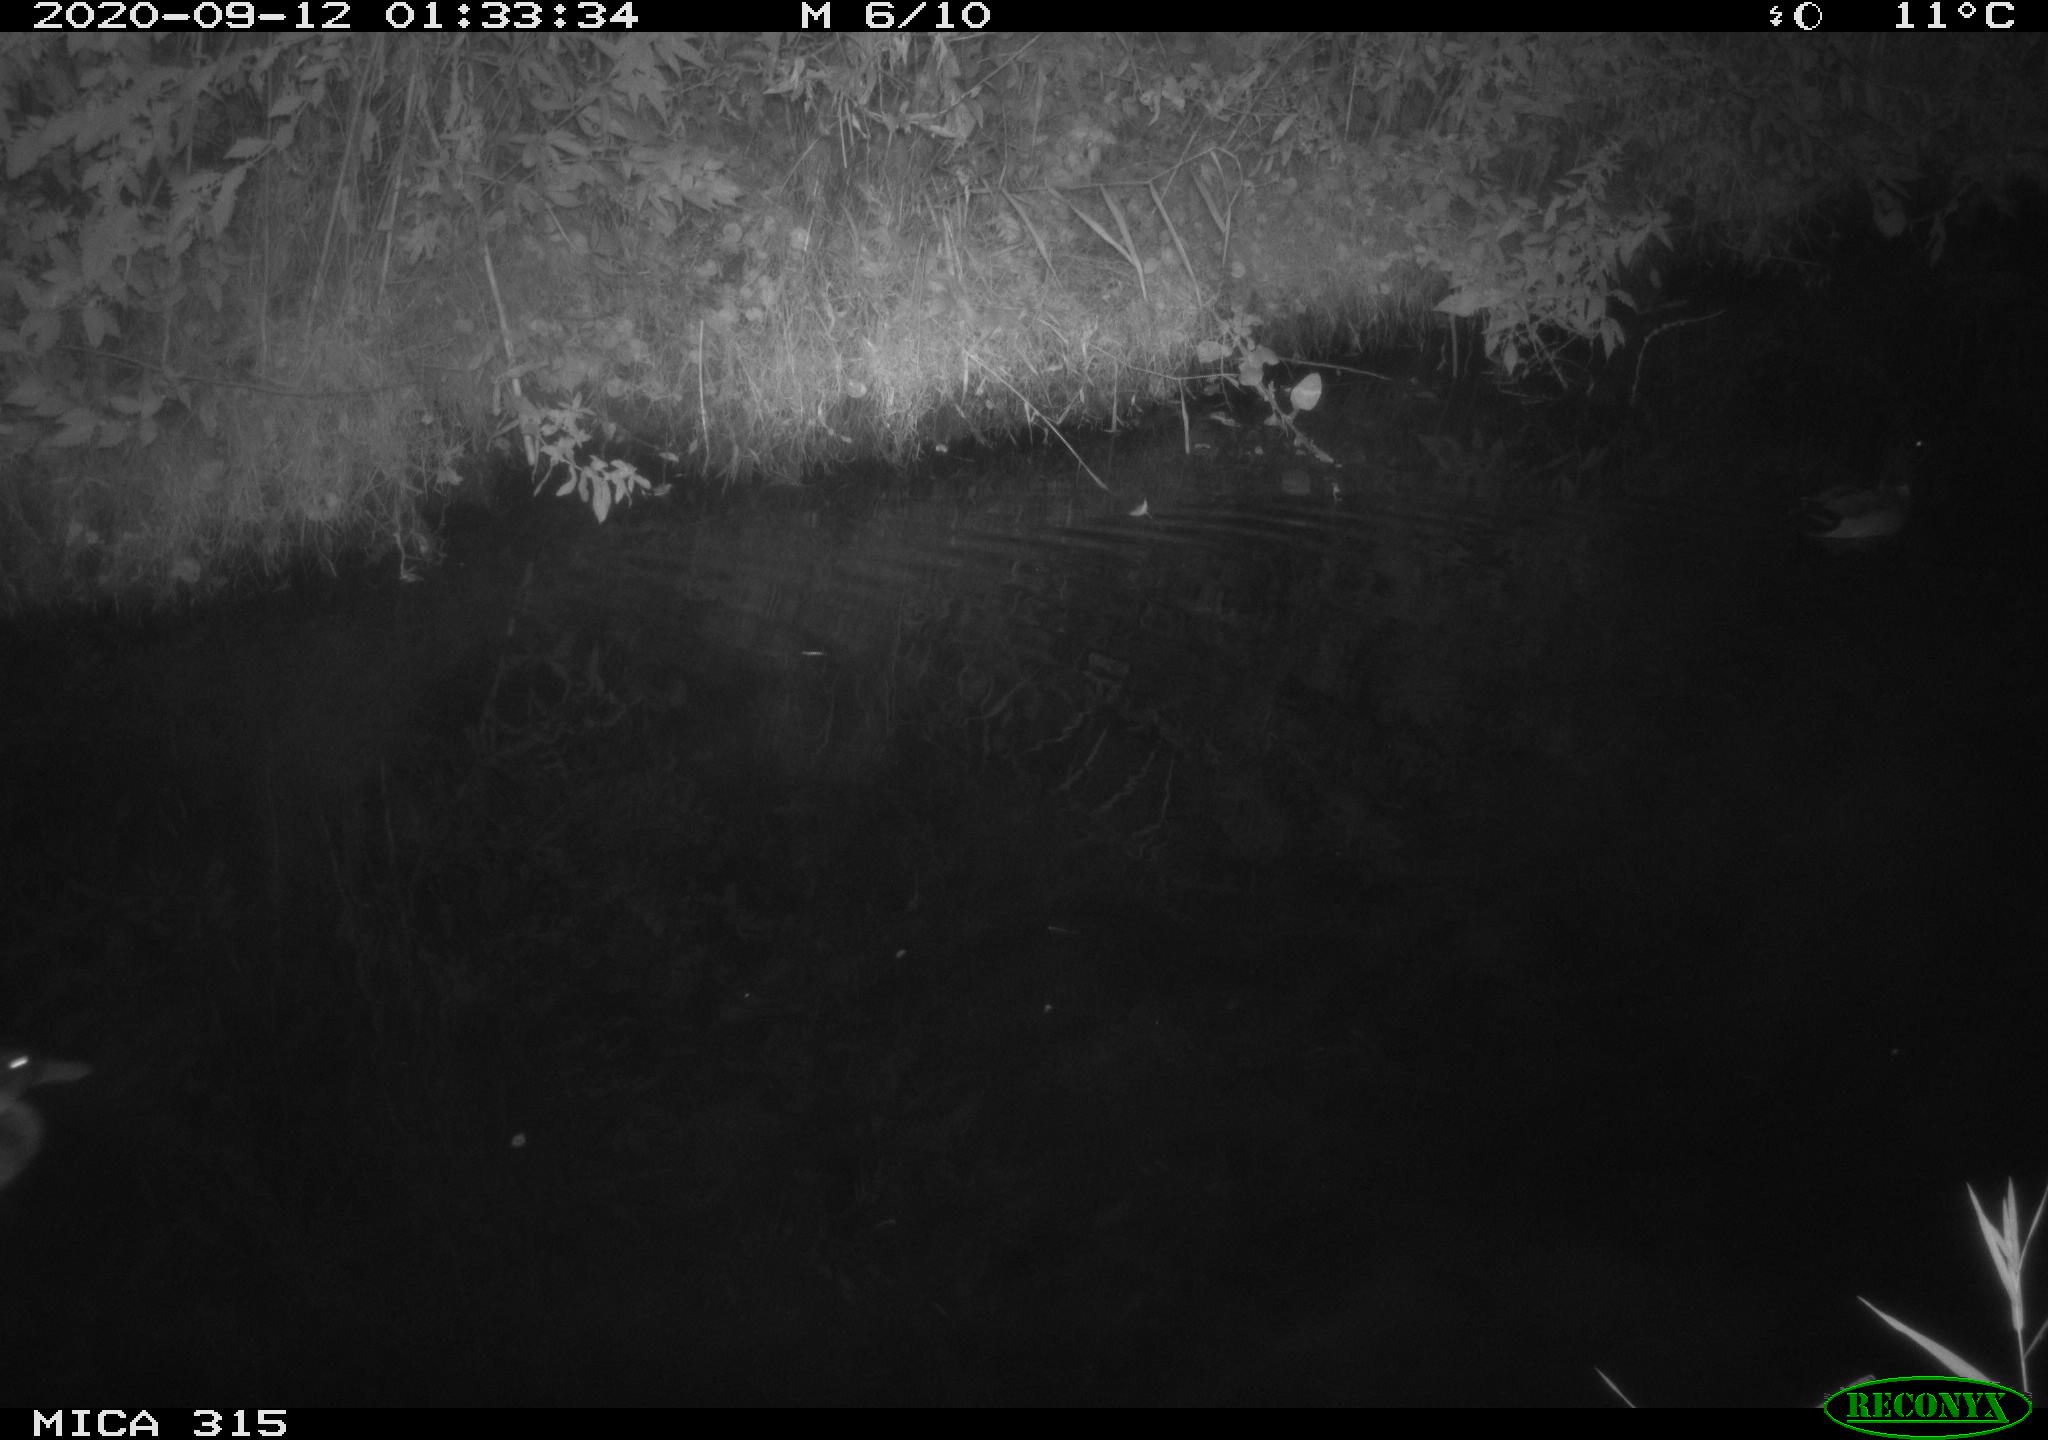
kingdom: Animalia
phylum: Chordata
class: Aves
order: Anseriformes
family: Anatidae
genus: Anas
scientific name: Anas platyrhynchos
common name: Mallard
